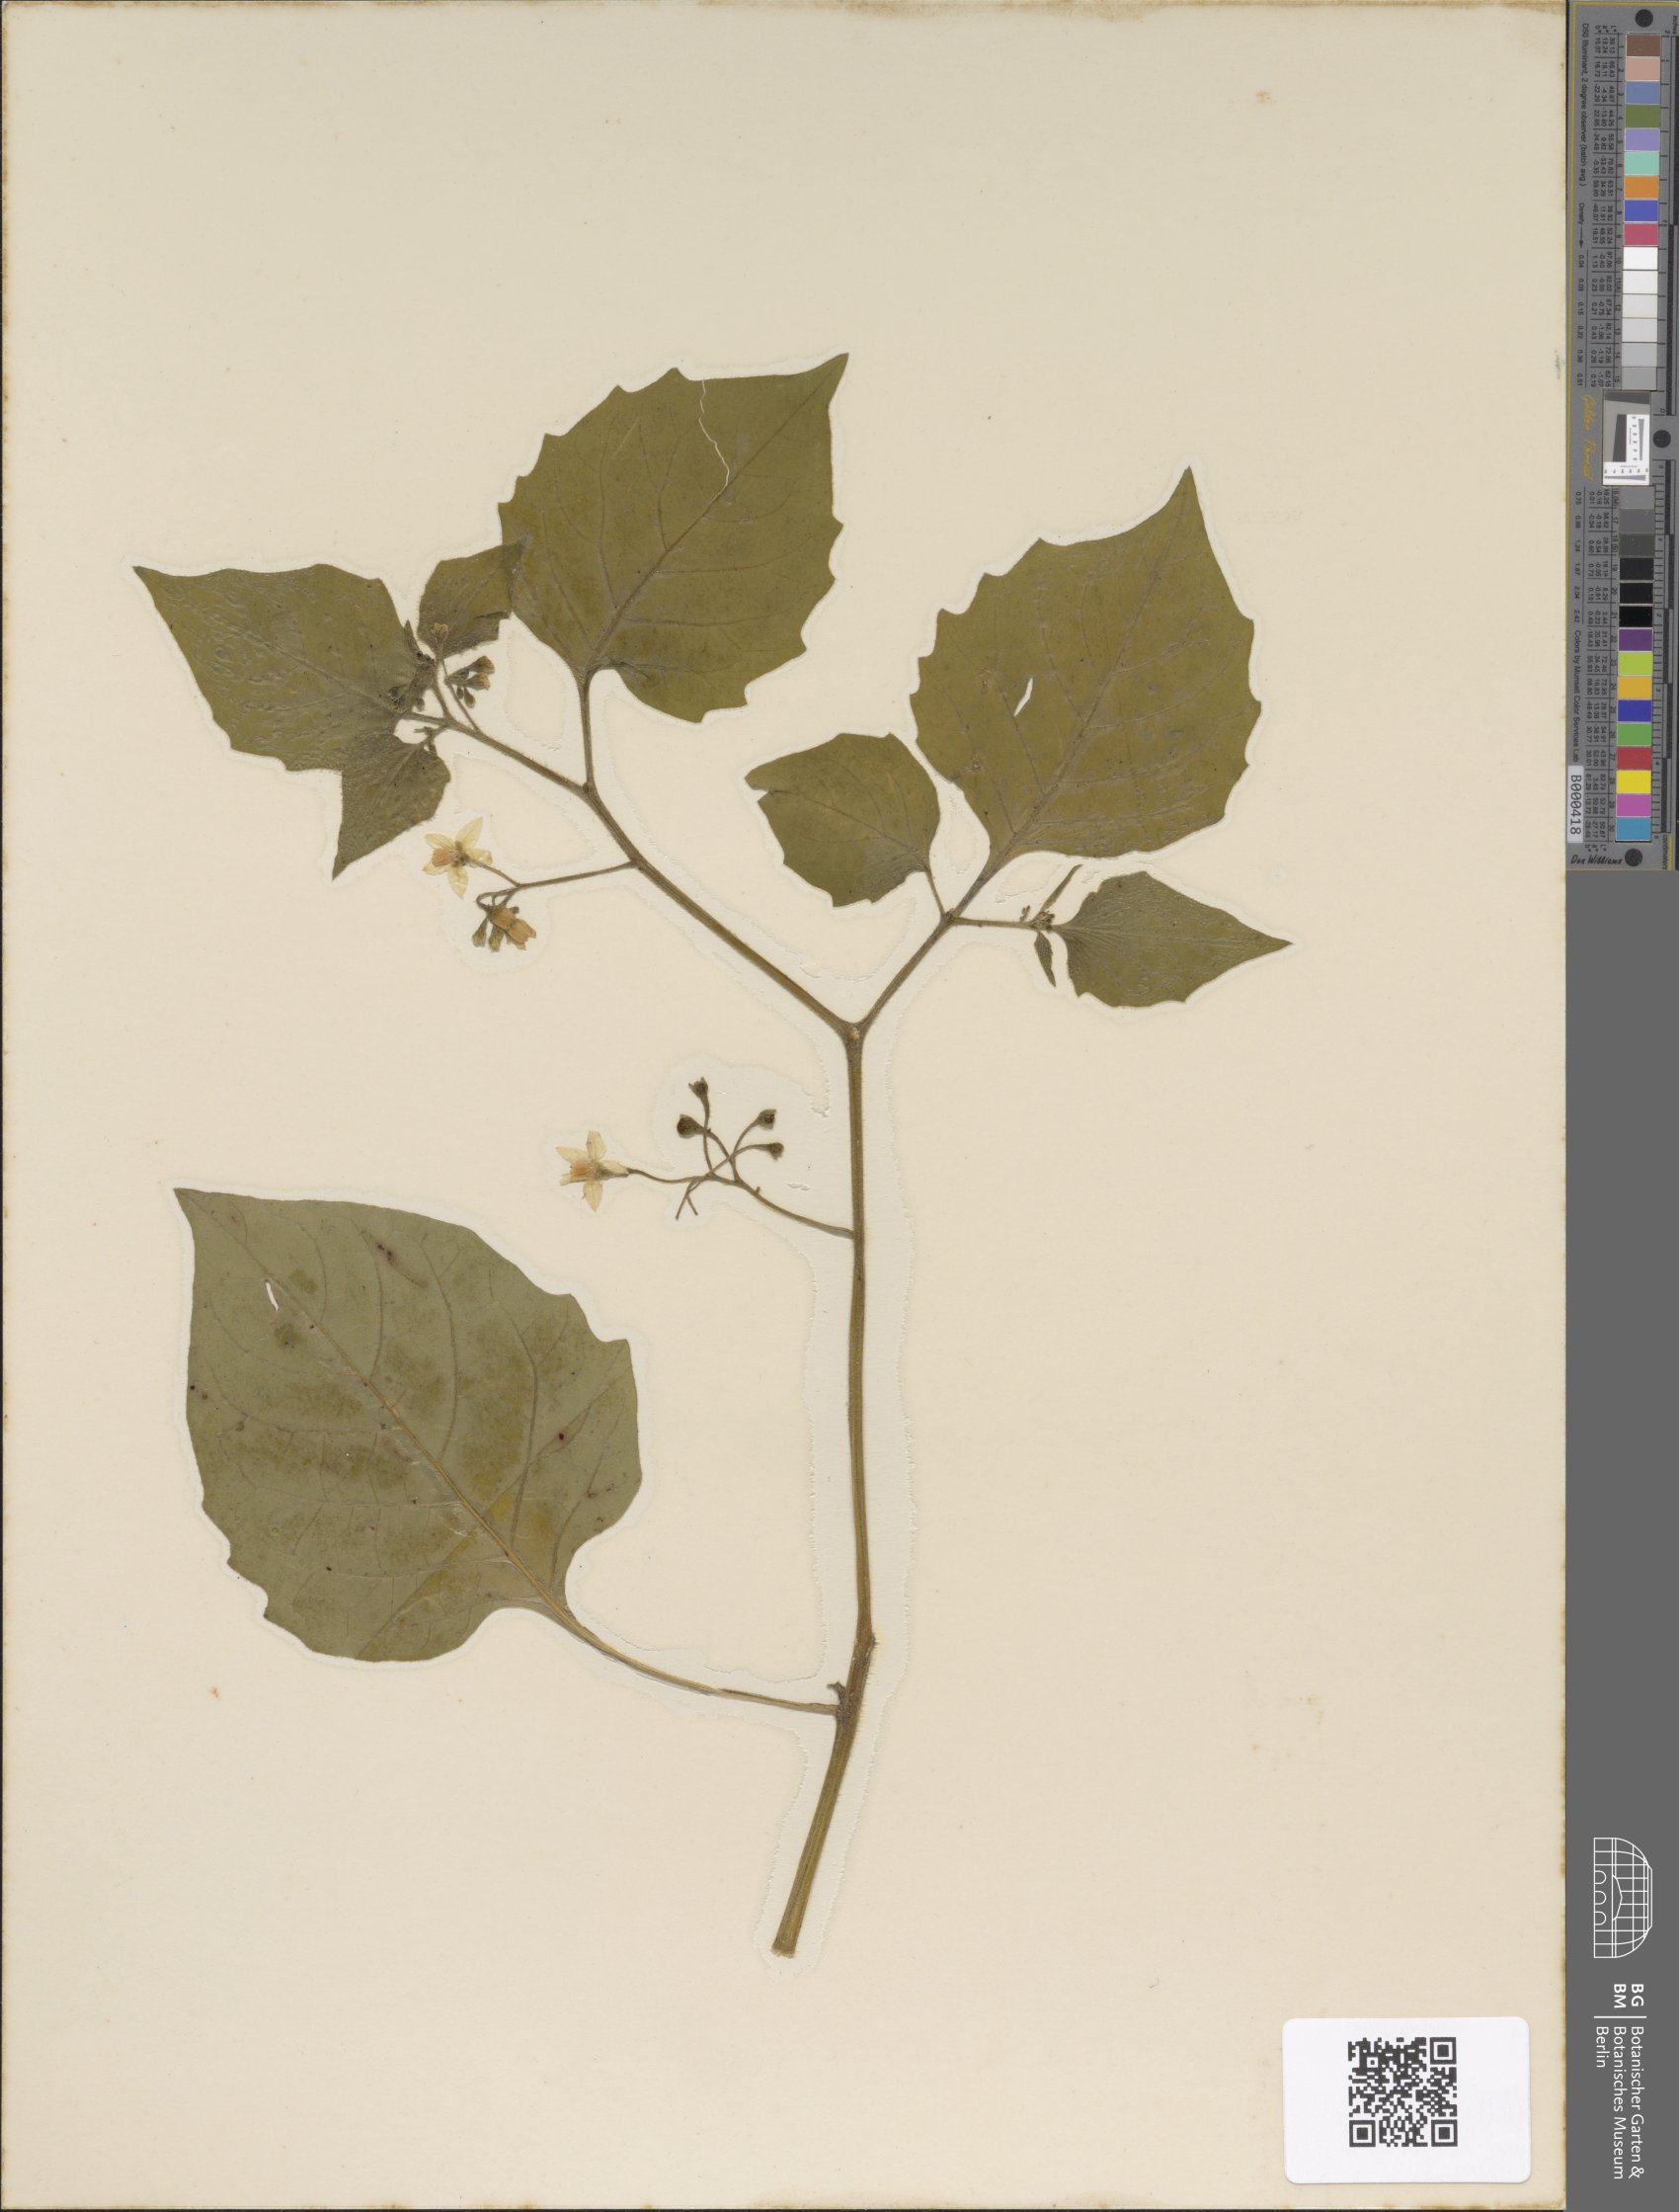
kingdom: Plantae
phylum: Tracheophyta
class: Magnoliopsida
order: Solanales
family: Solanaceae
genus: Solanum
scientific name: Solanum nigrum
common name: Black nightshade
